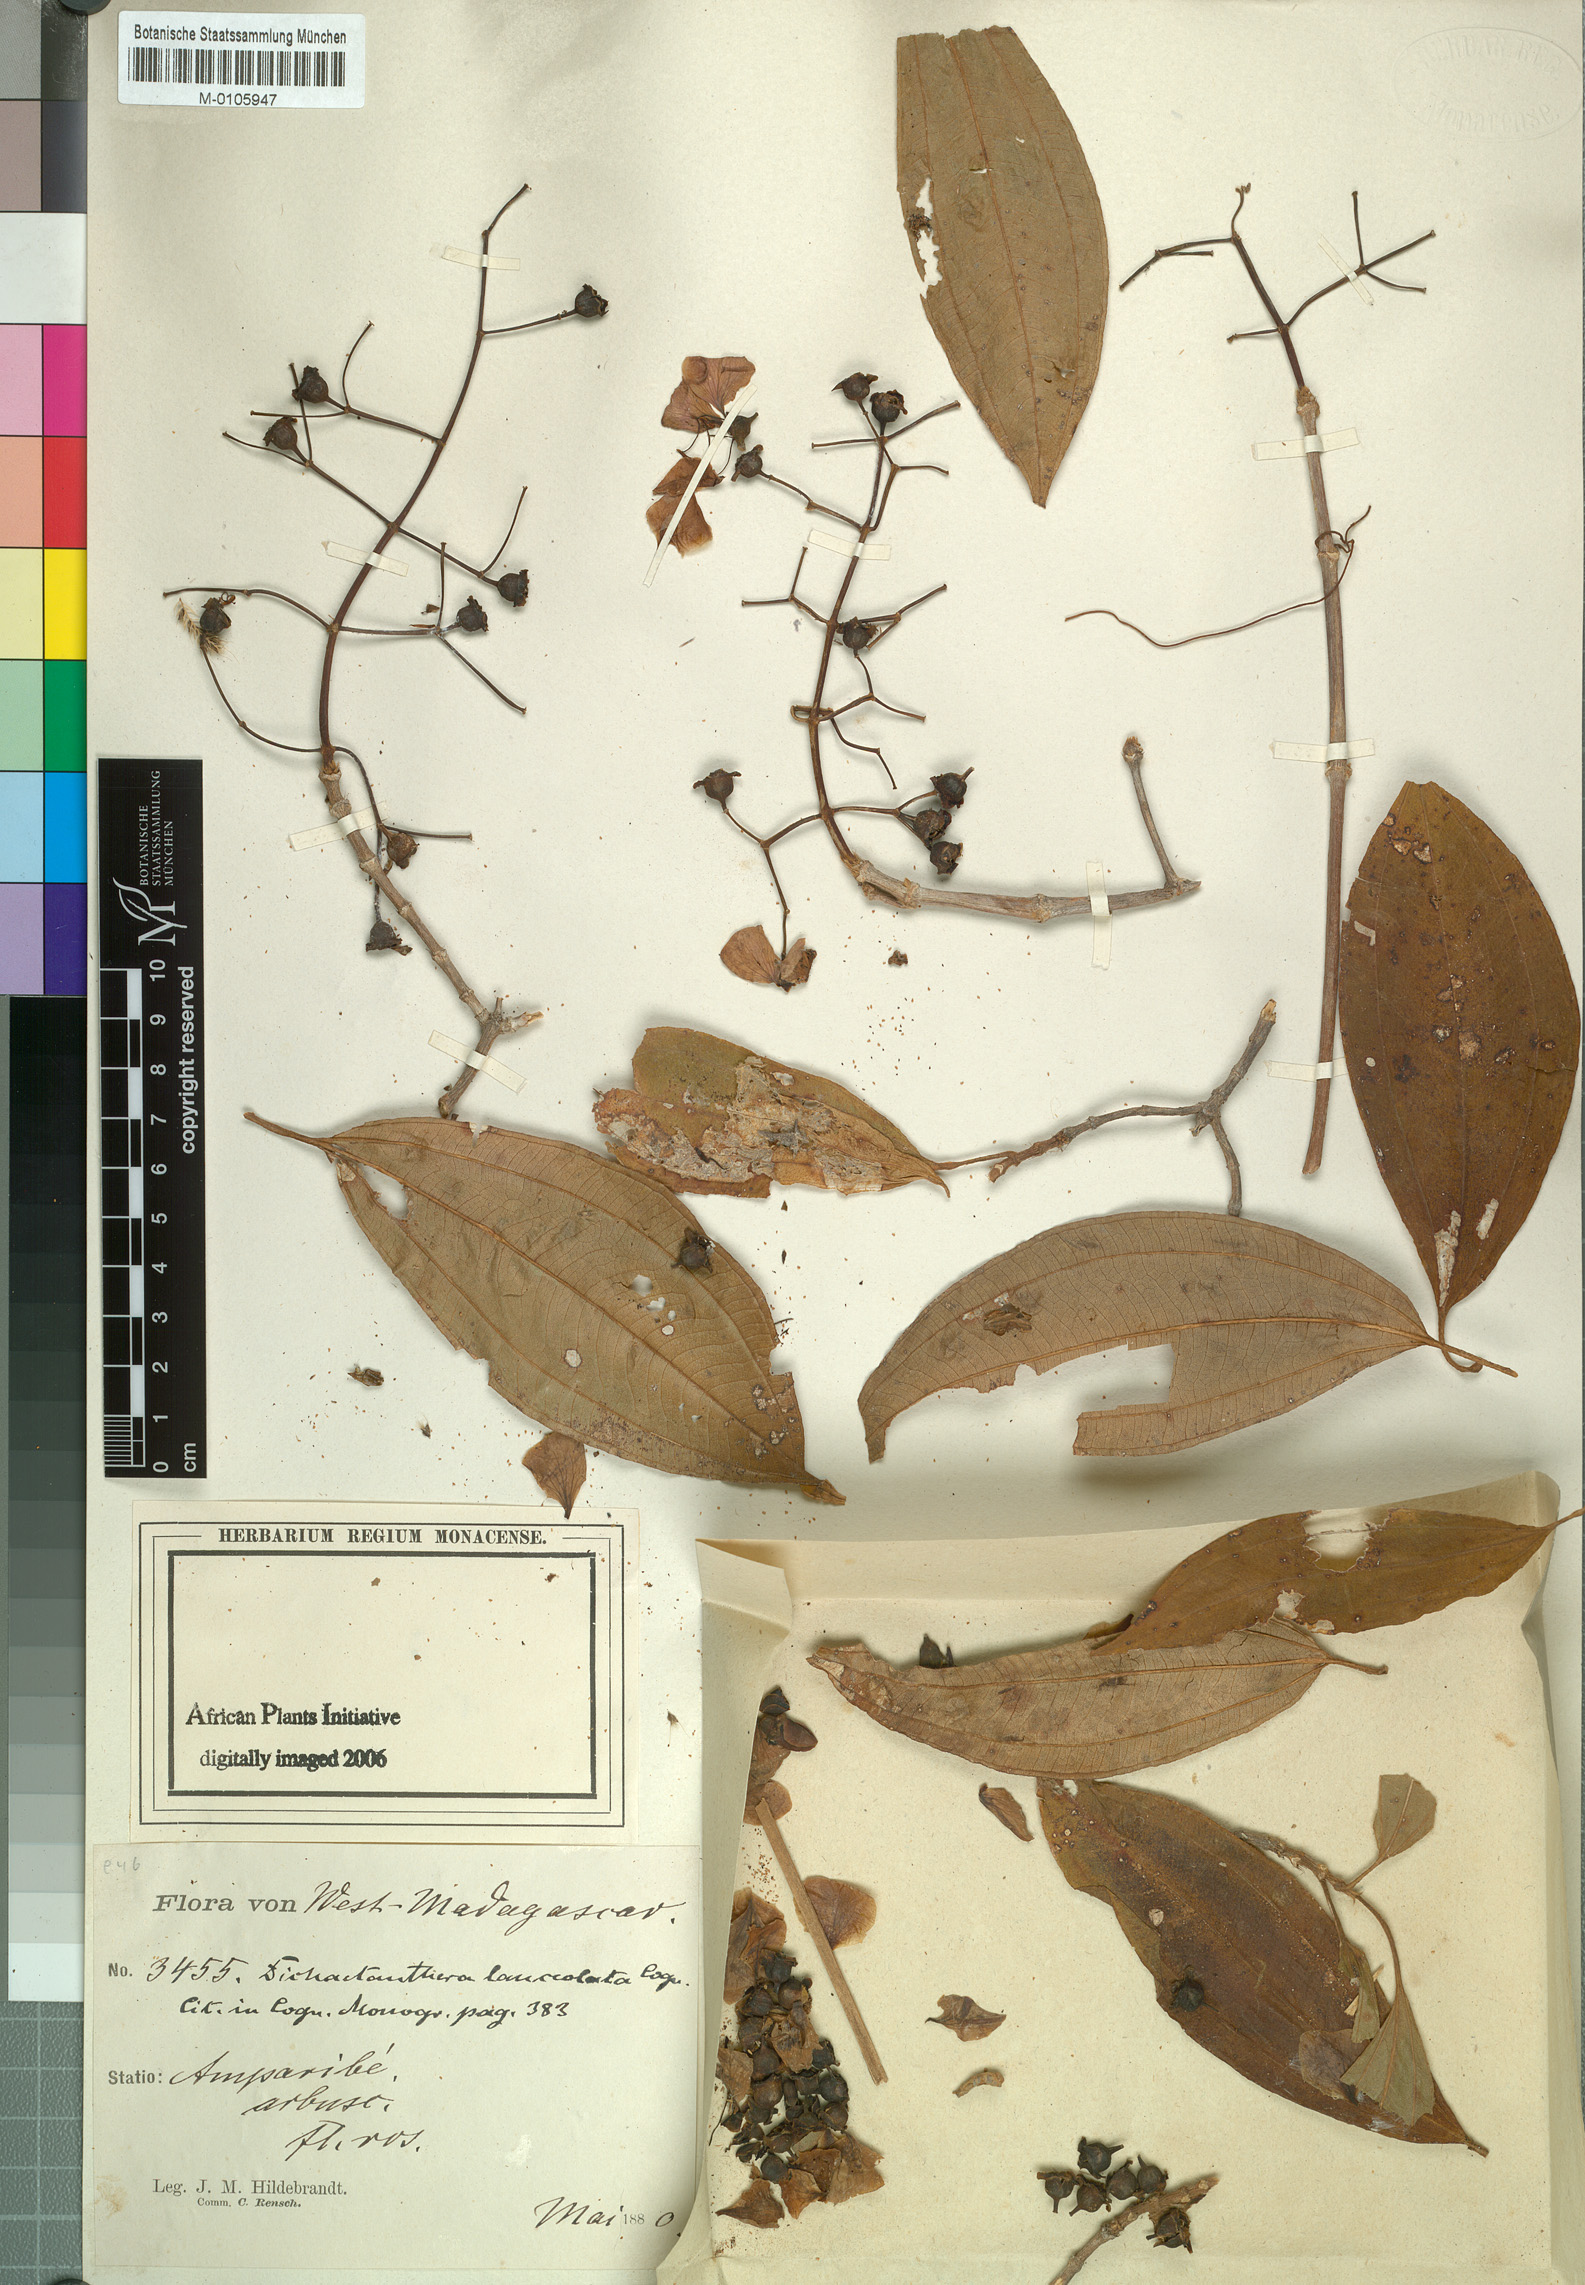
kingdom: Plantae
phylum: Tracheophyta
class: Magnoliopsida
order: Myrtales
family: Melastomataceae
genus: Dichaetanthera
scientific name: Dichaetanthera crassinodis
